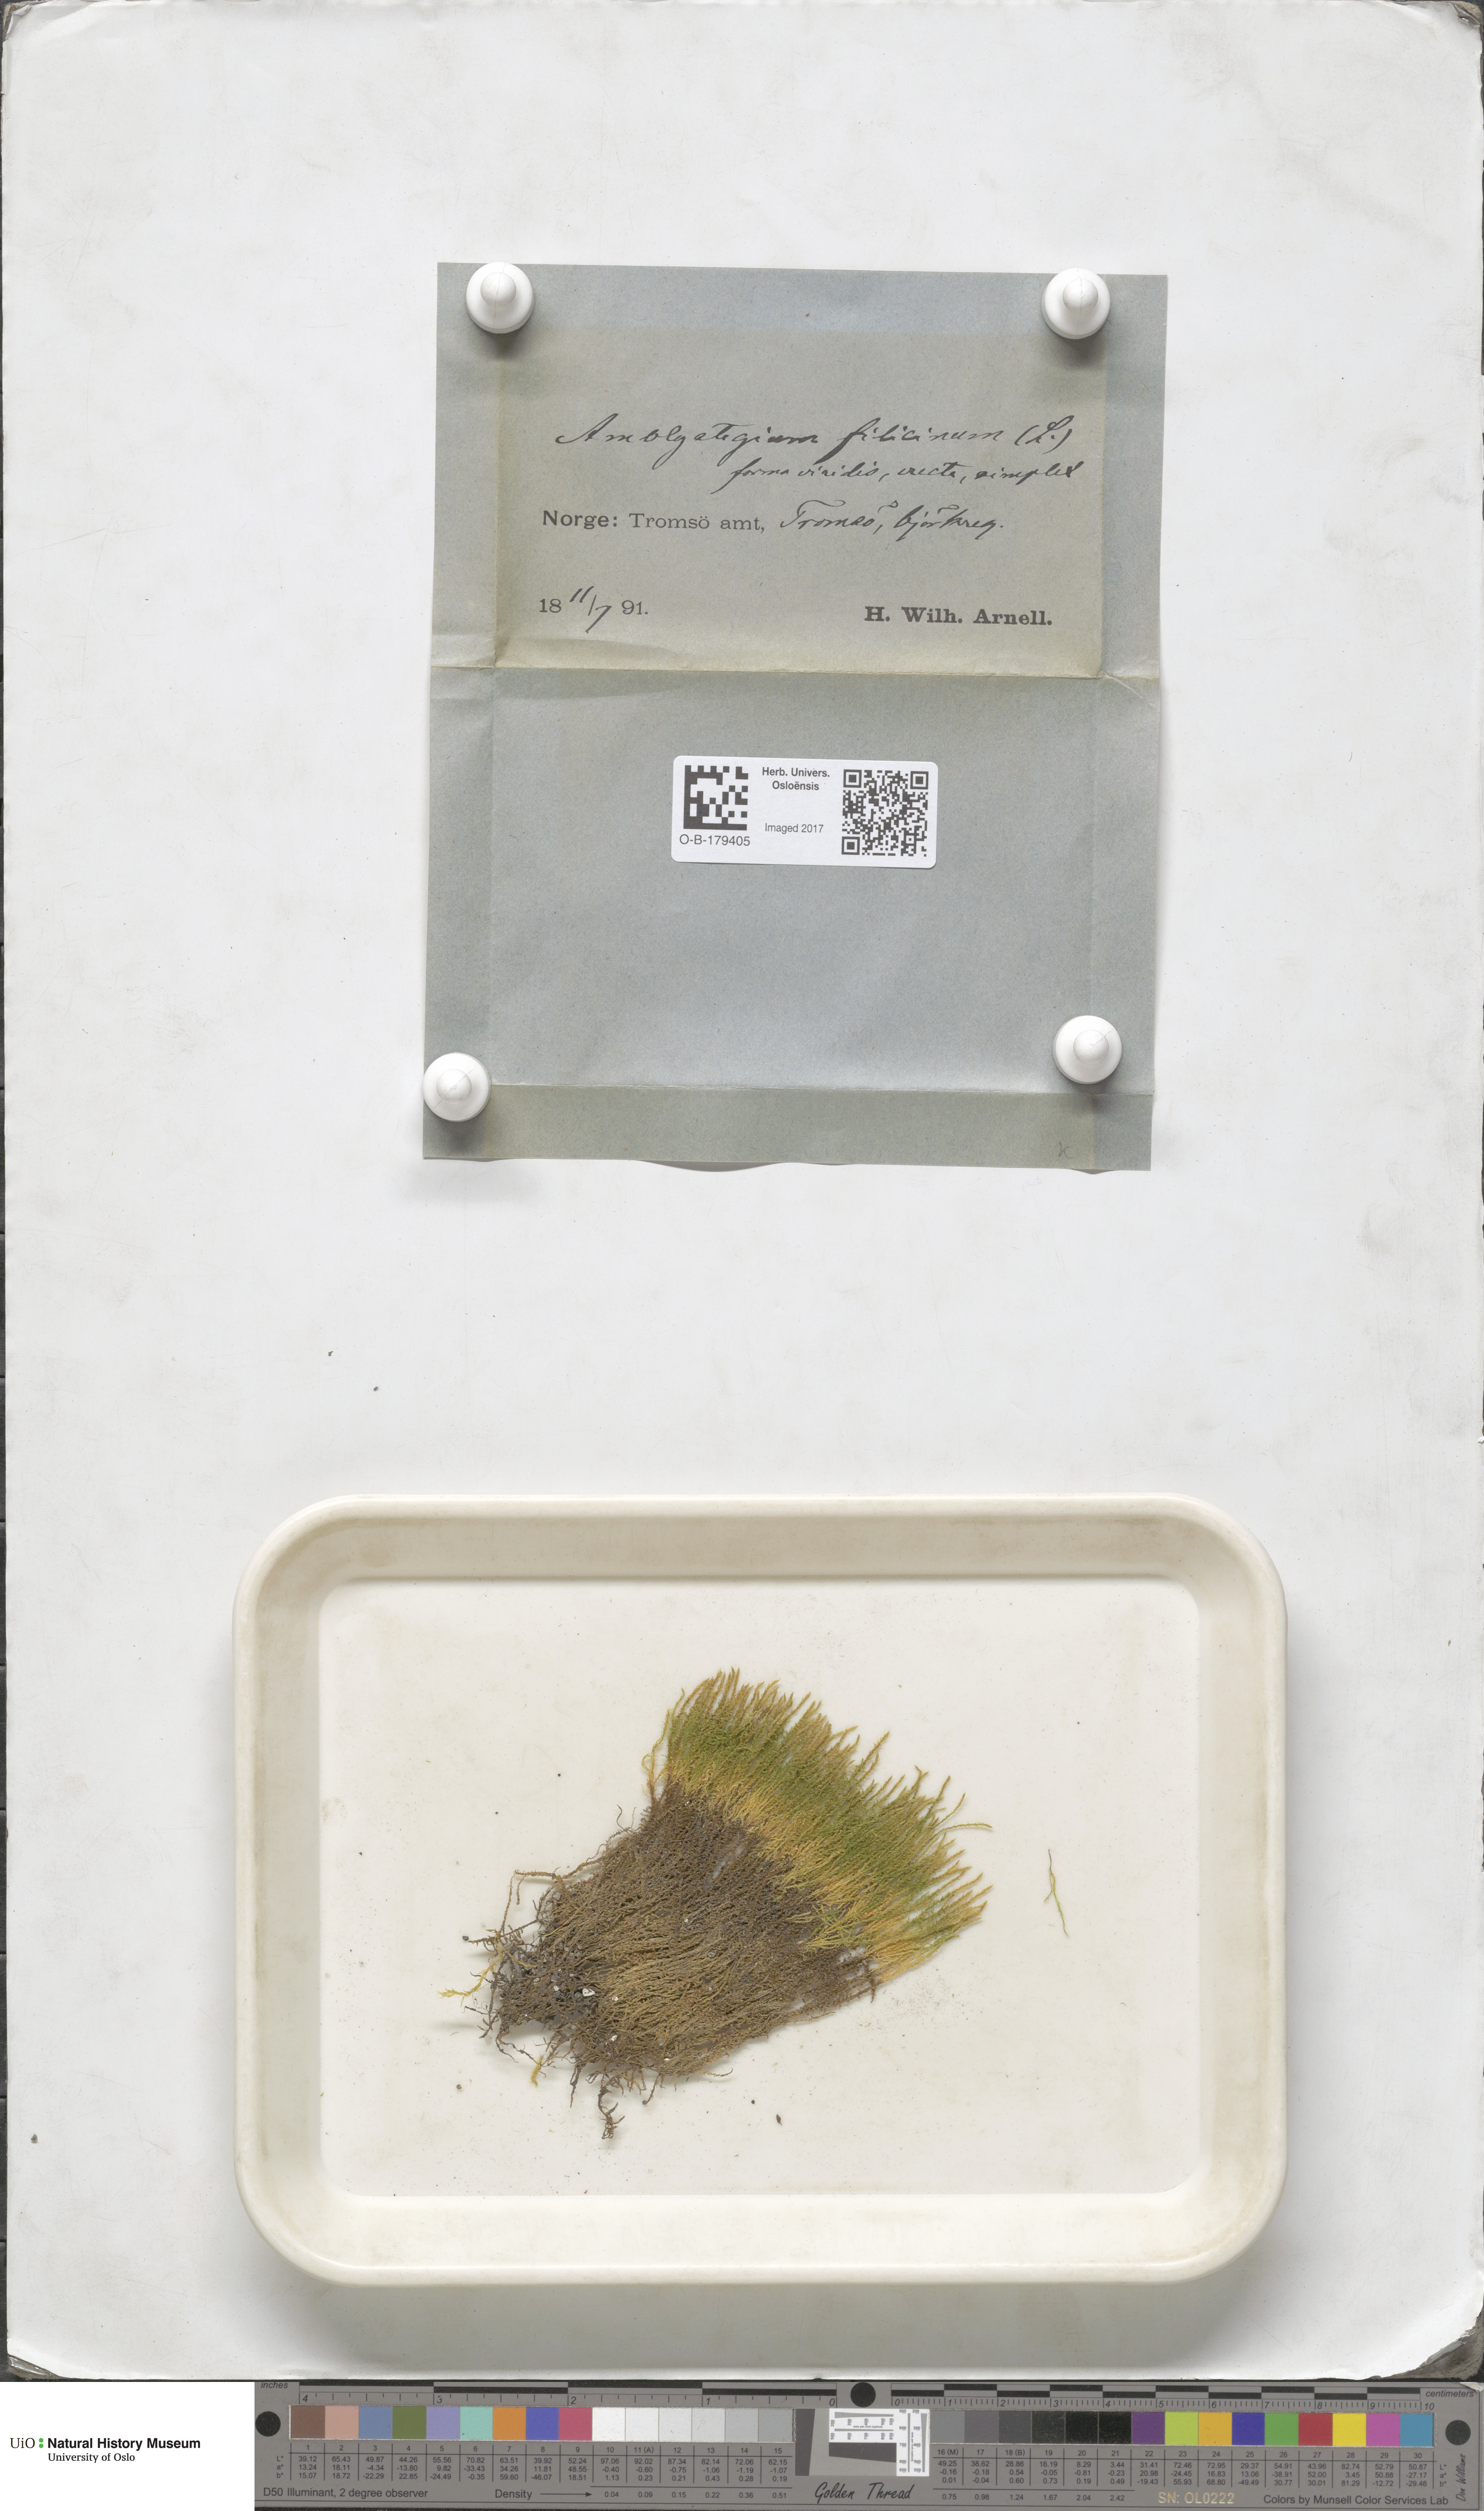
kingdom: Plantae
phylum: Bryophyta
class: Bryopsida
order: Hypnales
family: Amblystegiaceae
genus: Cratoneuron
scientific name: Cratoneuron filicinum
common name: Fern-leaved hook moss
